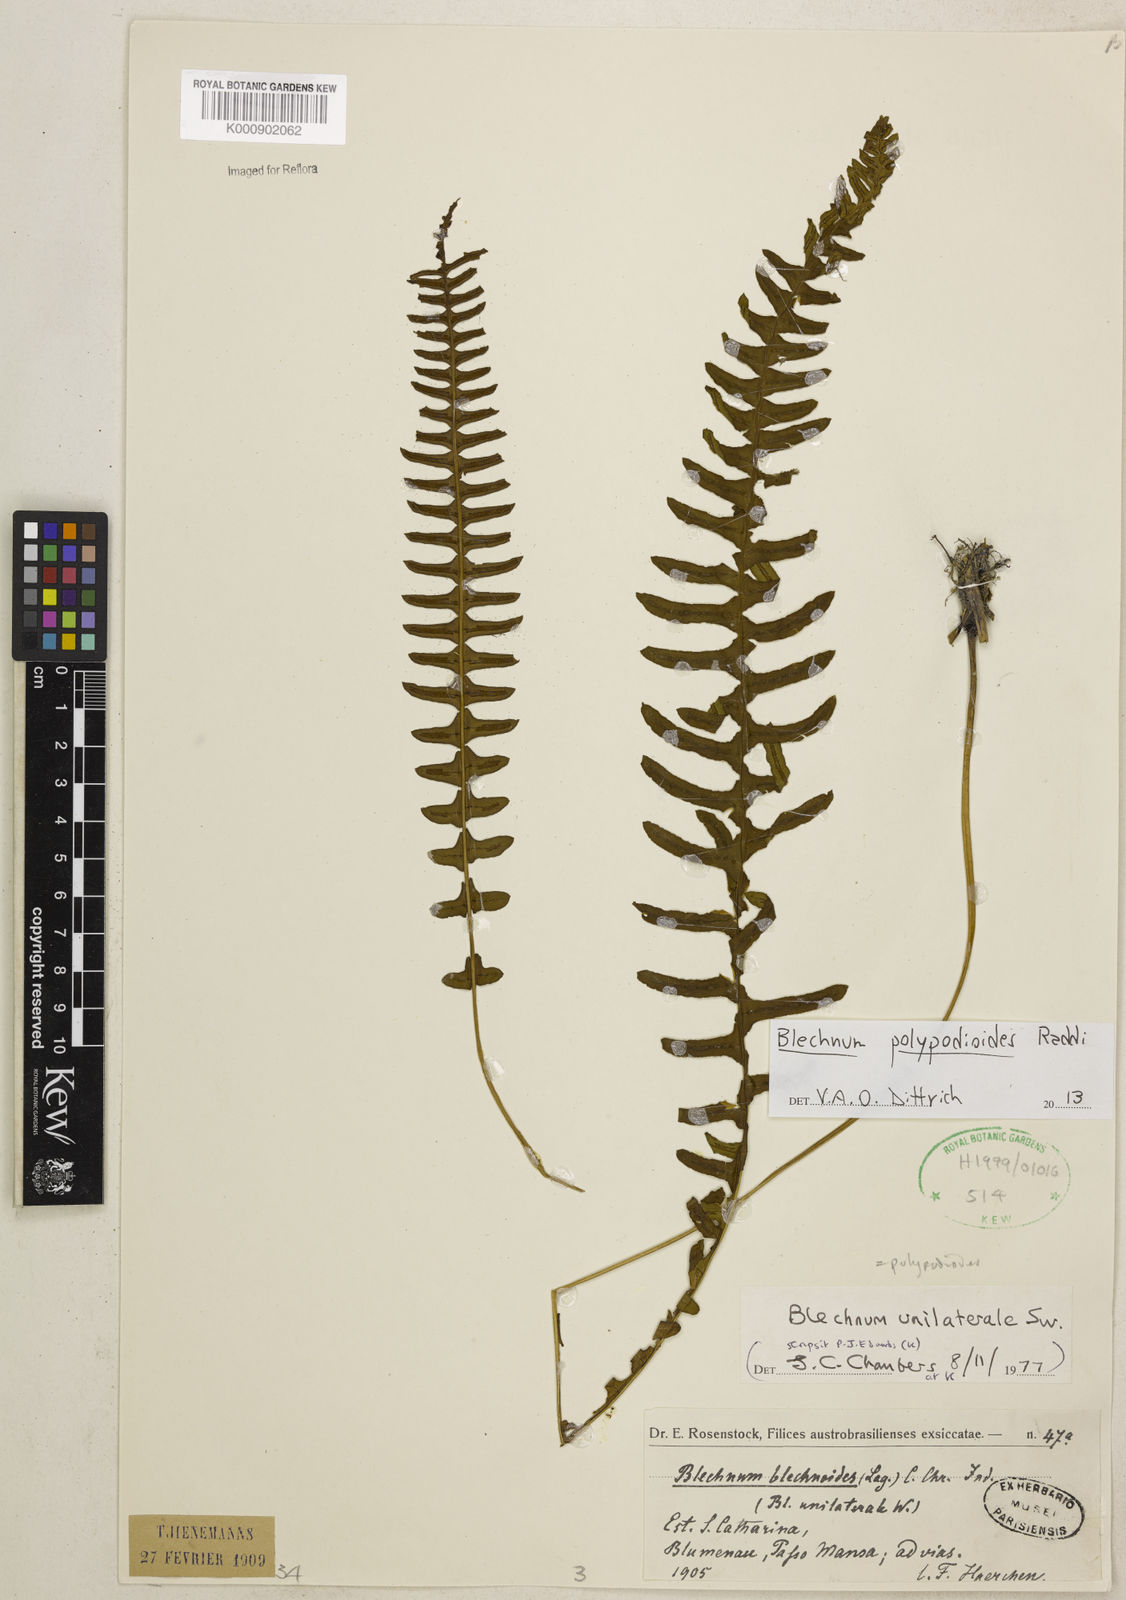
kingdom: Plantae
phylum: Tracheophyta
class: Polypodiopsida
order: Polypodiales
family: Blechnaceae
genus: Blechnum
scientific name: Blechnum polypodioides
